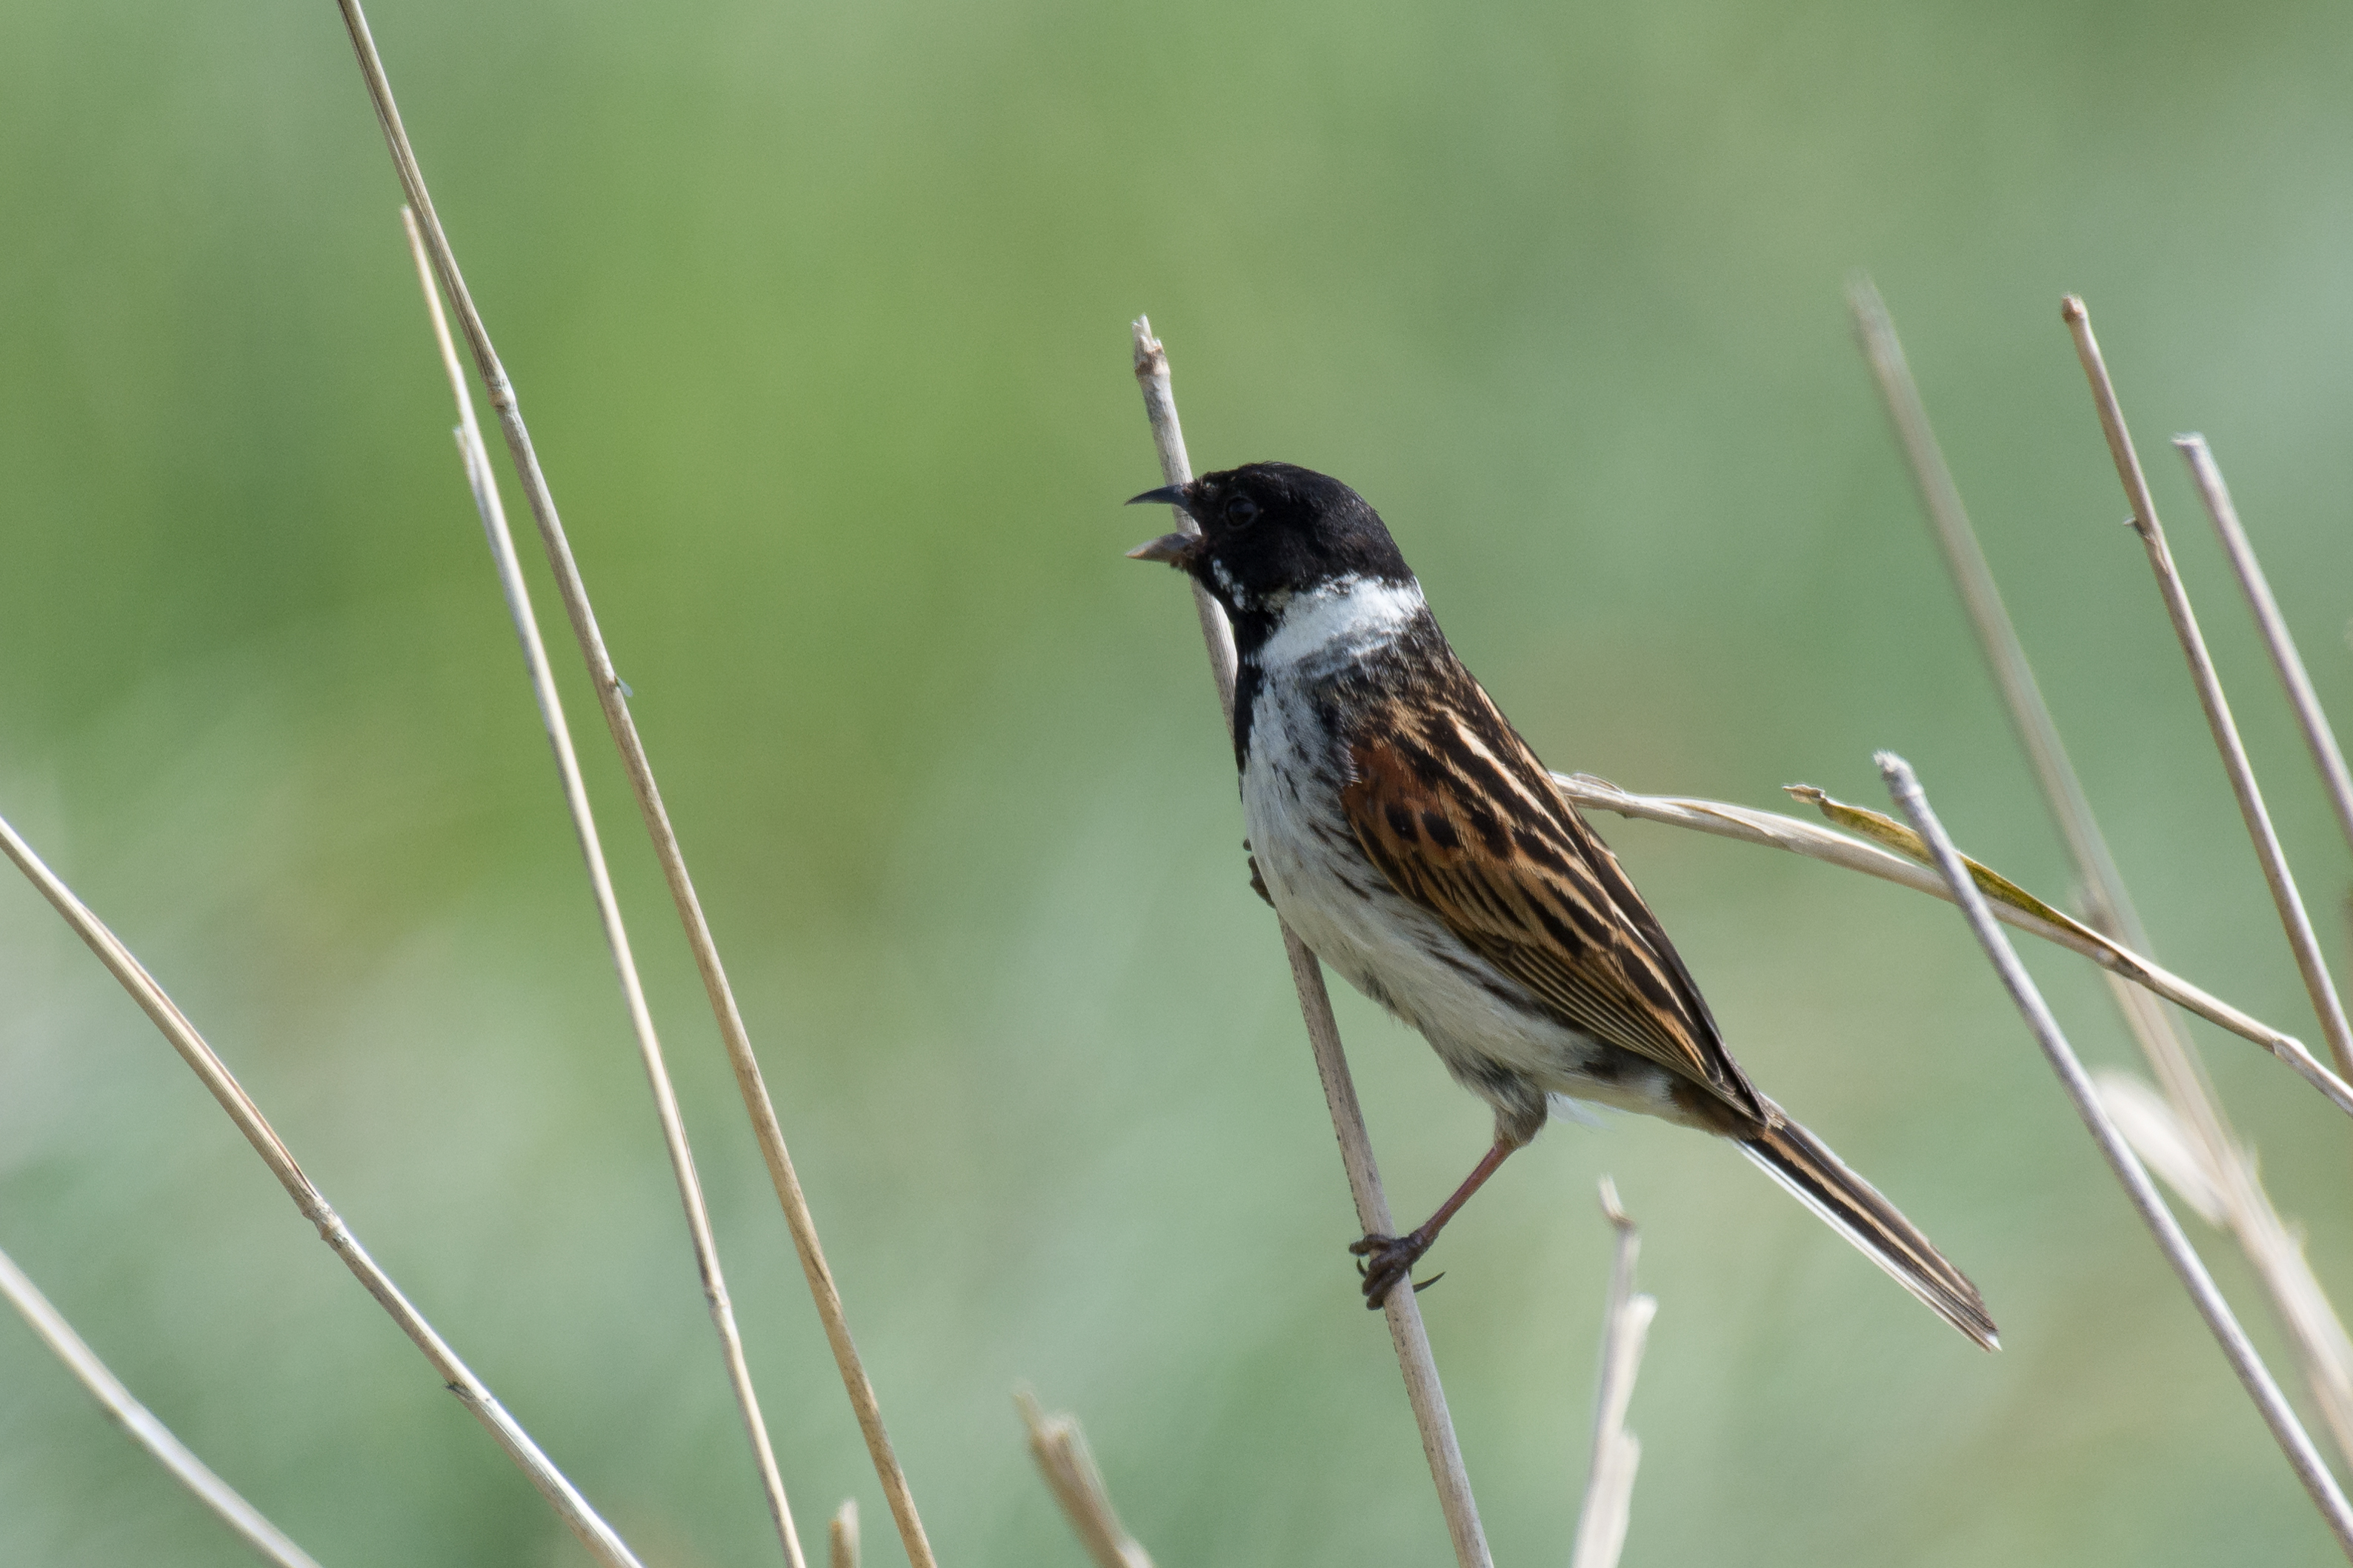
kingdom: Animalia
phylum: Chordata
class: Aves
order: Passeriformes
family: Emberizidae
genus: Emberiza
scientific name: Emberiza schoeniclus
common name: Rørspurv
